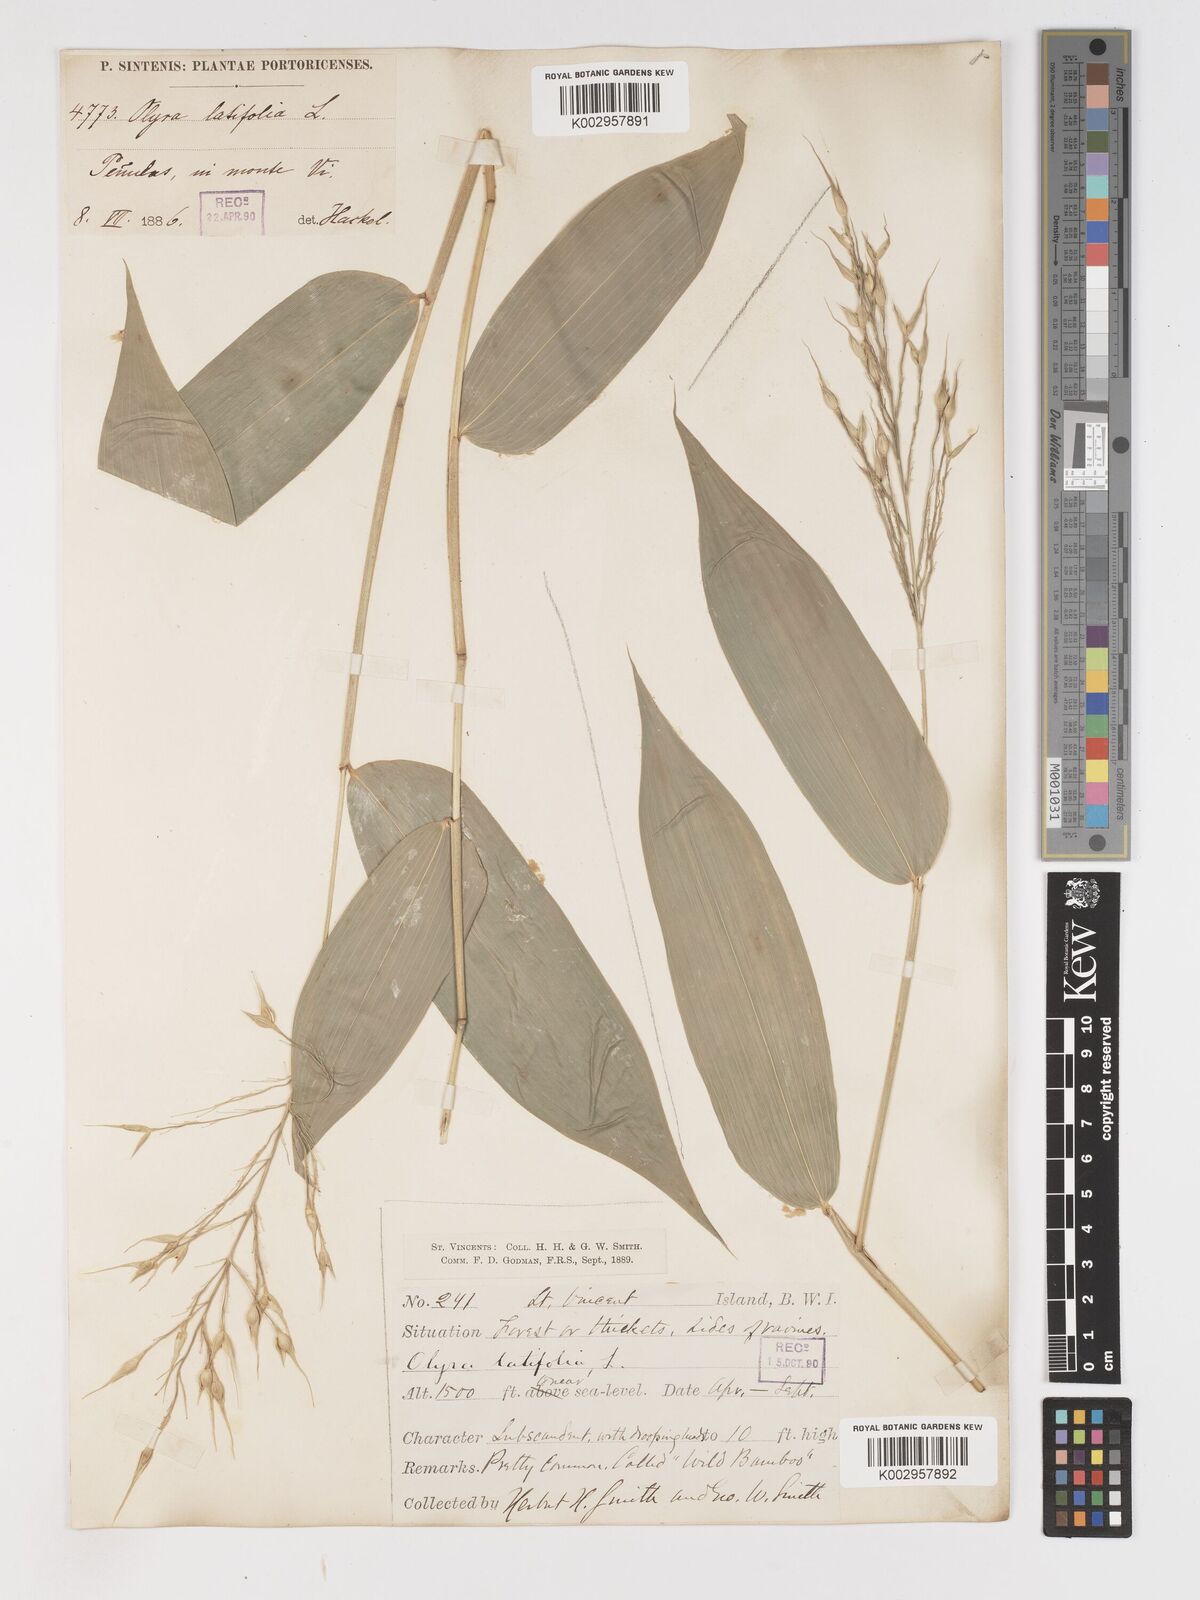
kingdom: Plantae
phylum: Tracheophyta
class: Liliopsida
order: Poales
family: Poaceae
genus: Olyra
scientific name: Olyra latifolia
